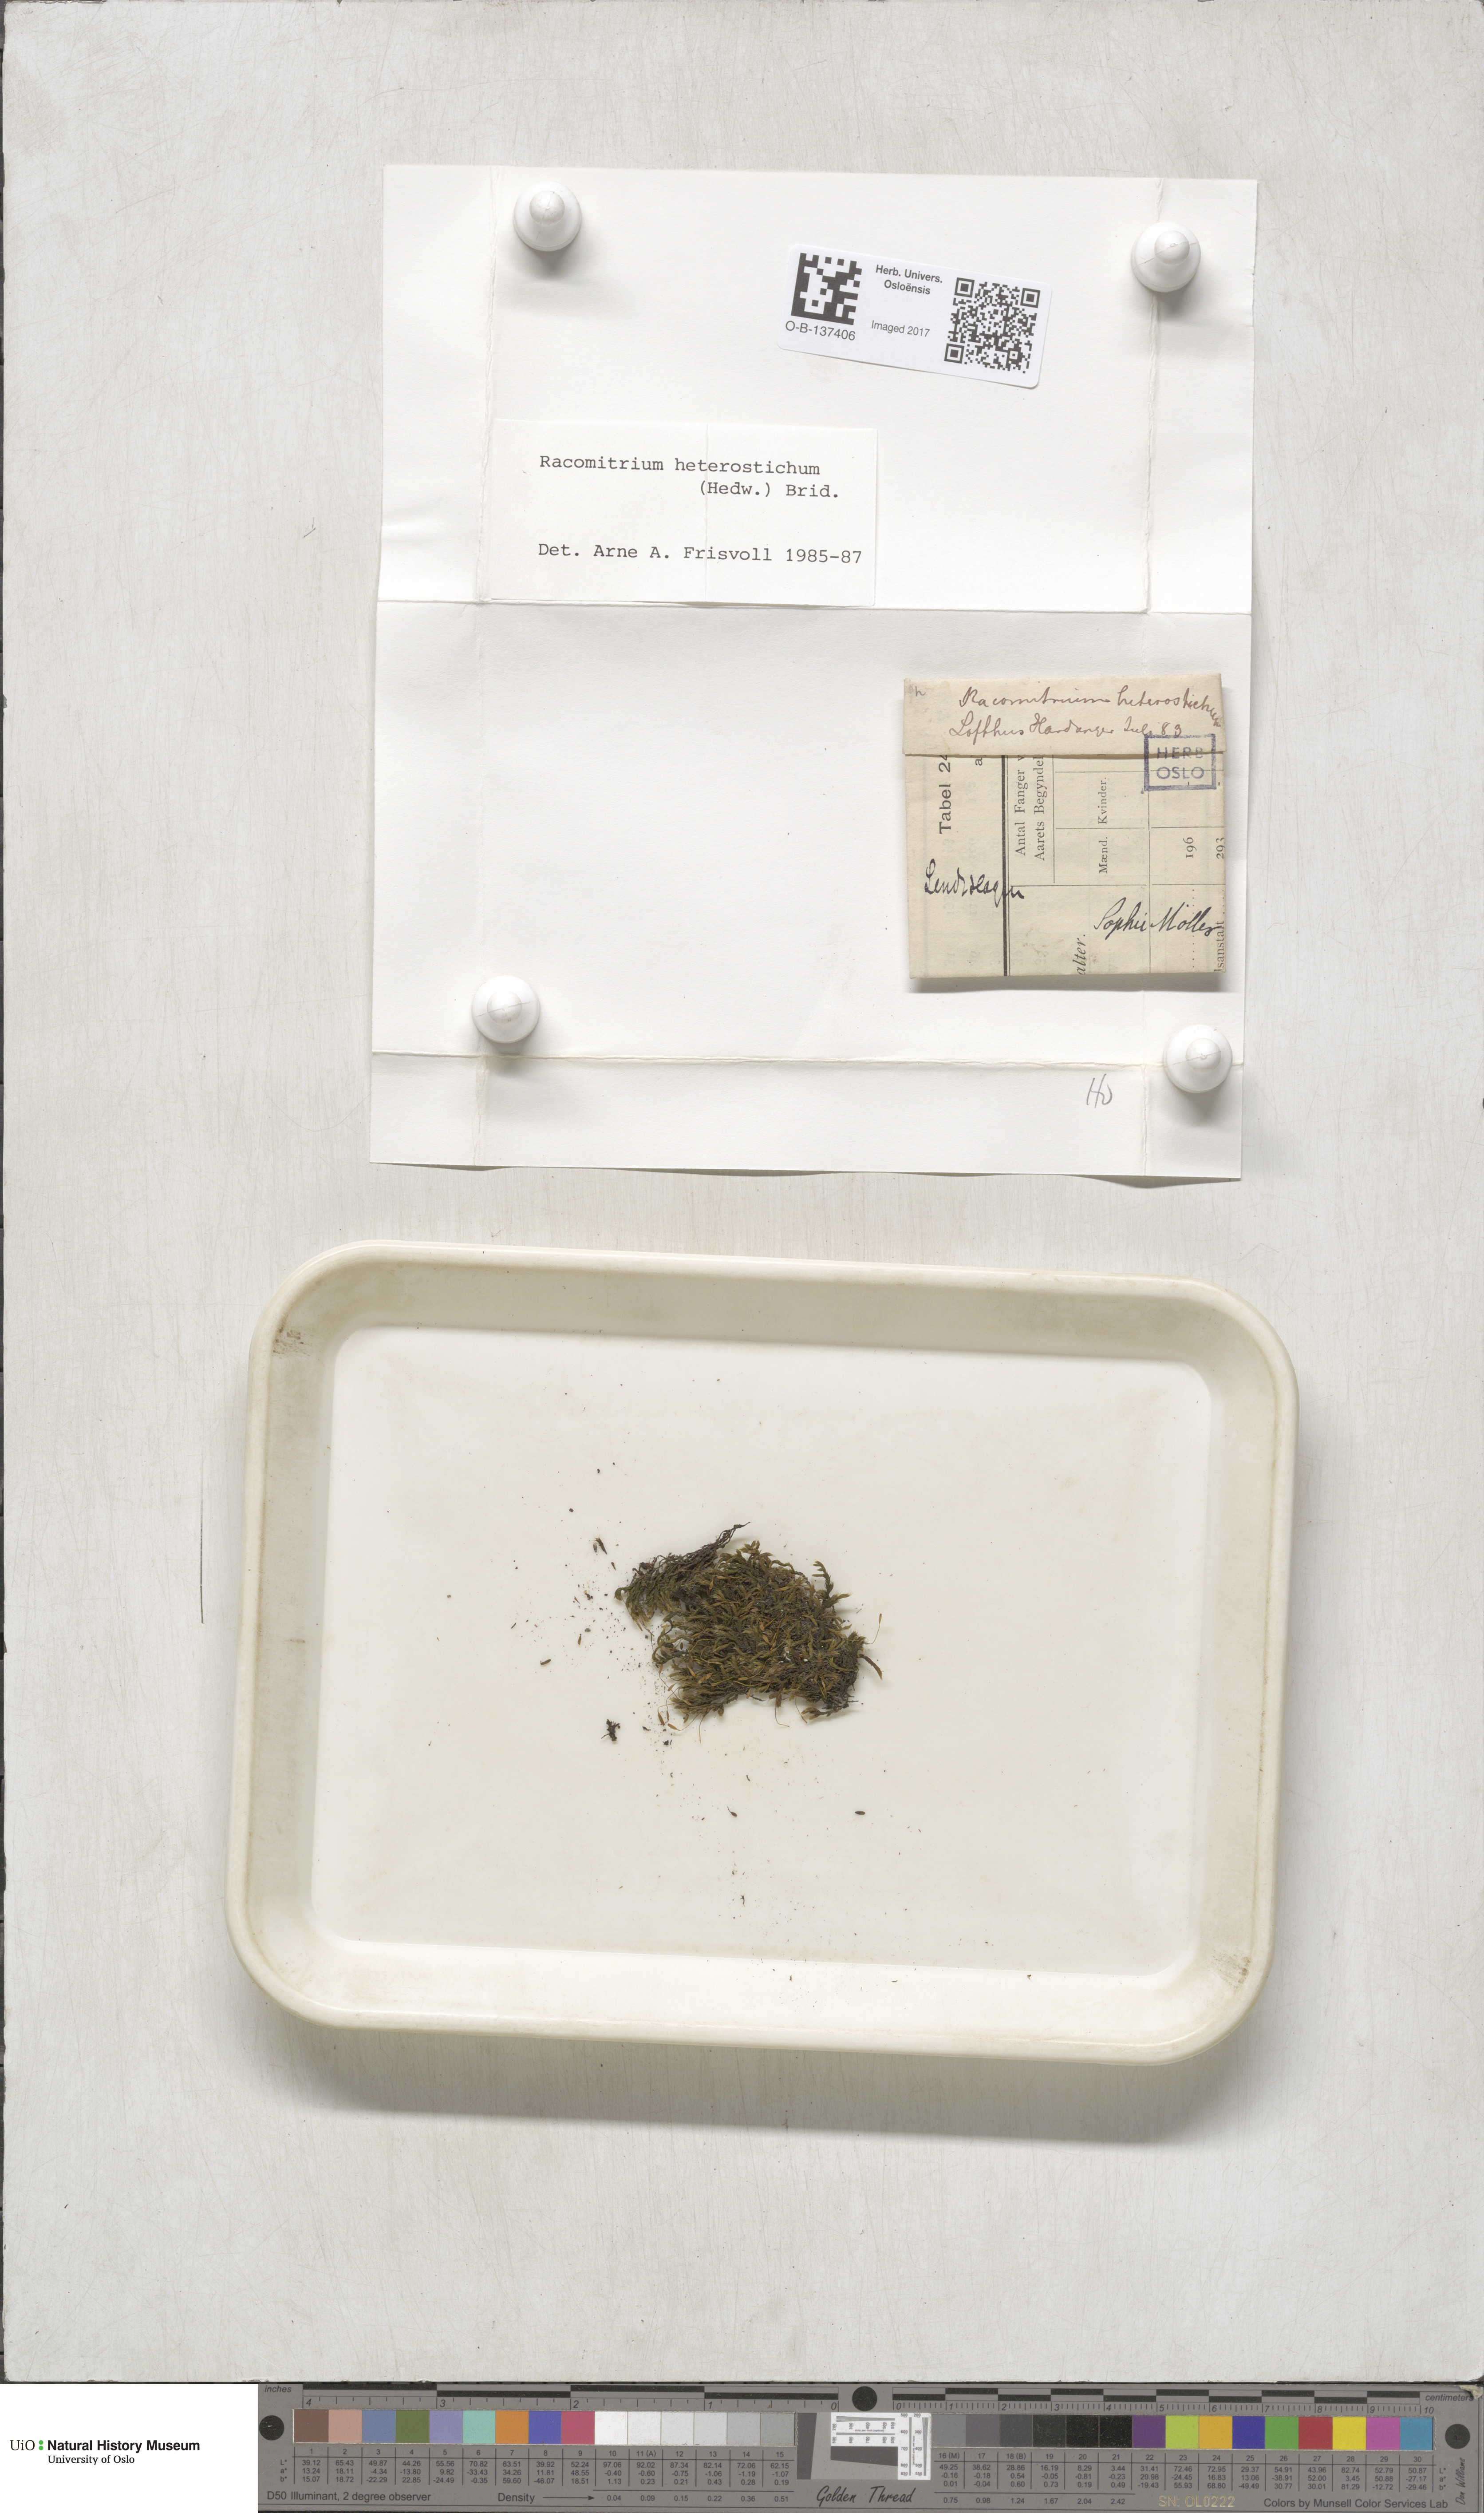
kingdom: Plantae
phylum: Bryophyta
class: Bryopsida
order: Grimmiales
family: Grimmiaceae
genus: Bucklandiella
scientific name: Bucklandiella heterosticha
